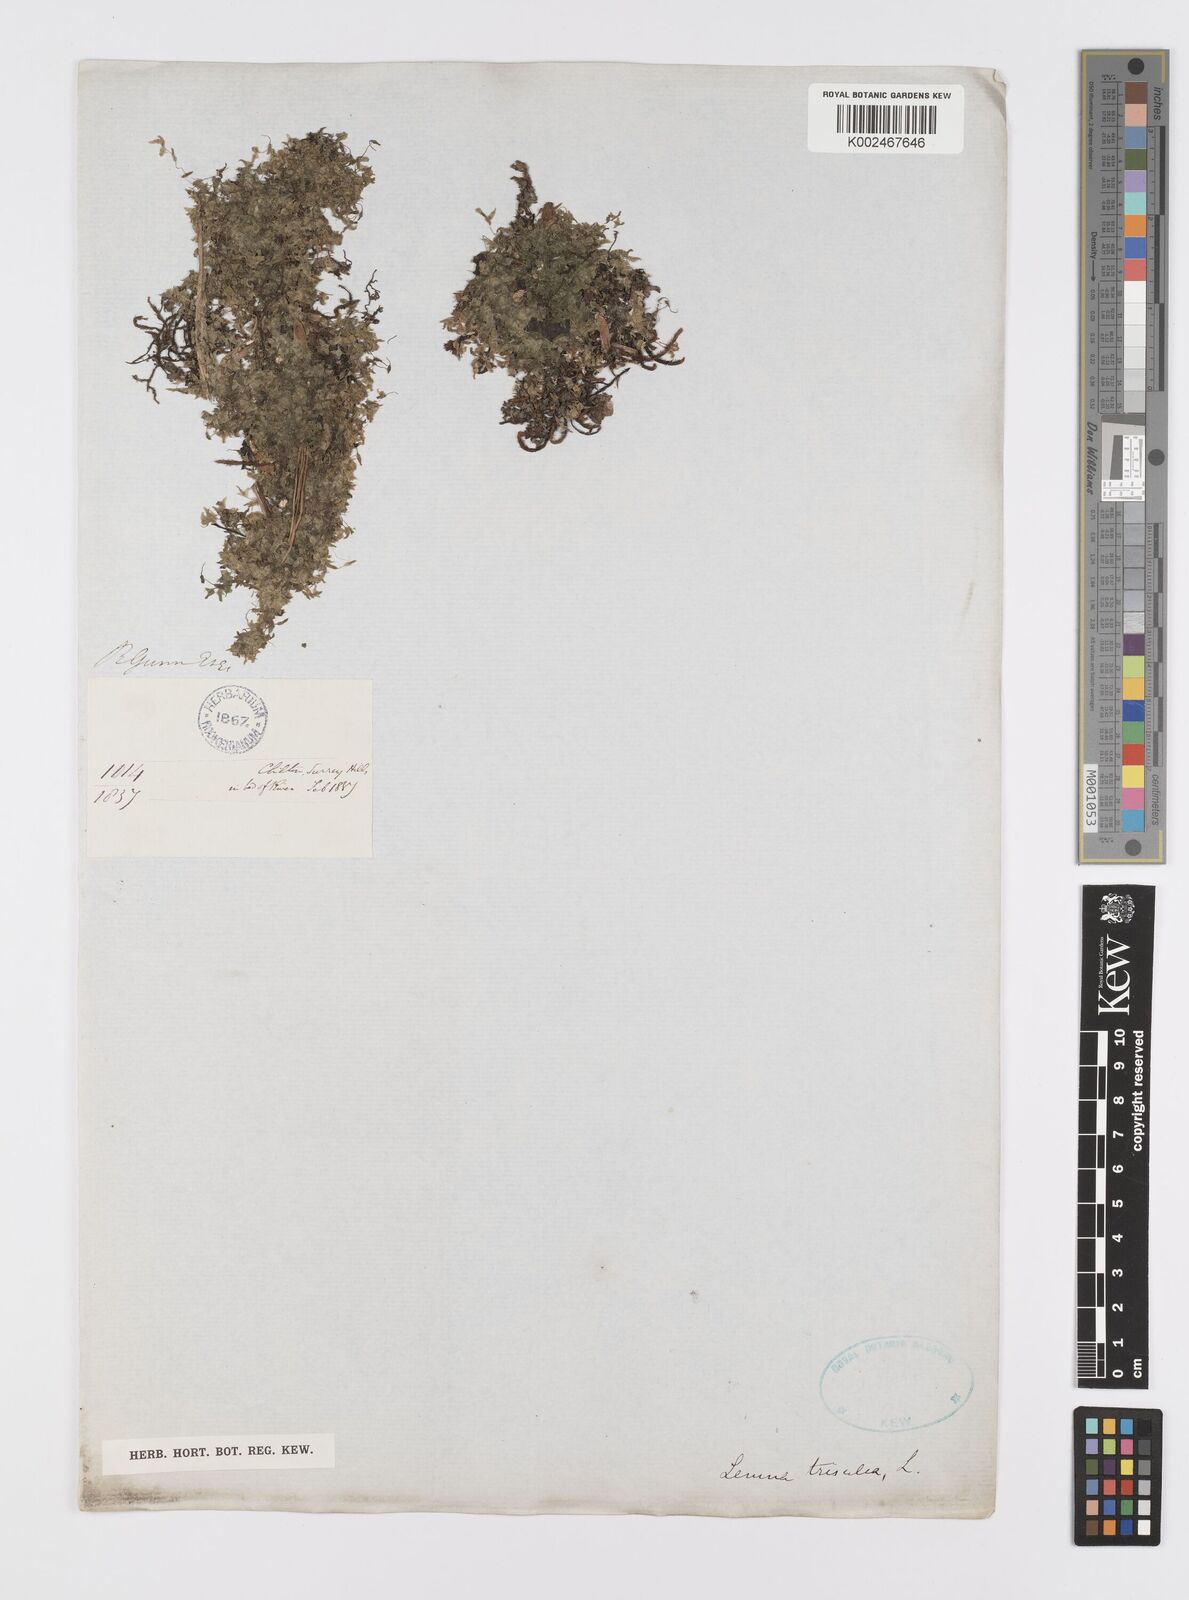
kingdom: Plantae
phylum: Tracheophyta
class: Liliopsida
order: Alismatales
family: Araceae
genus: Lemna
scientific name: Lemna trisulca
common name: Ivy-leaved duckweed
